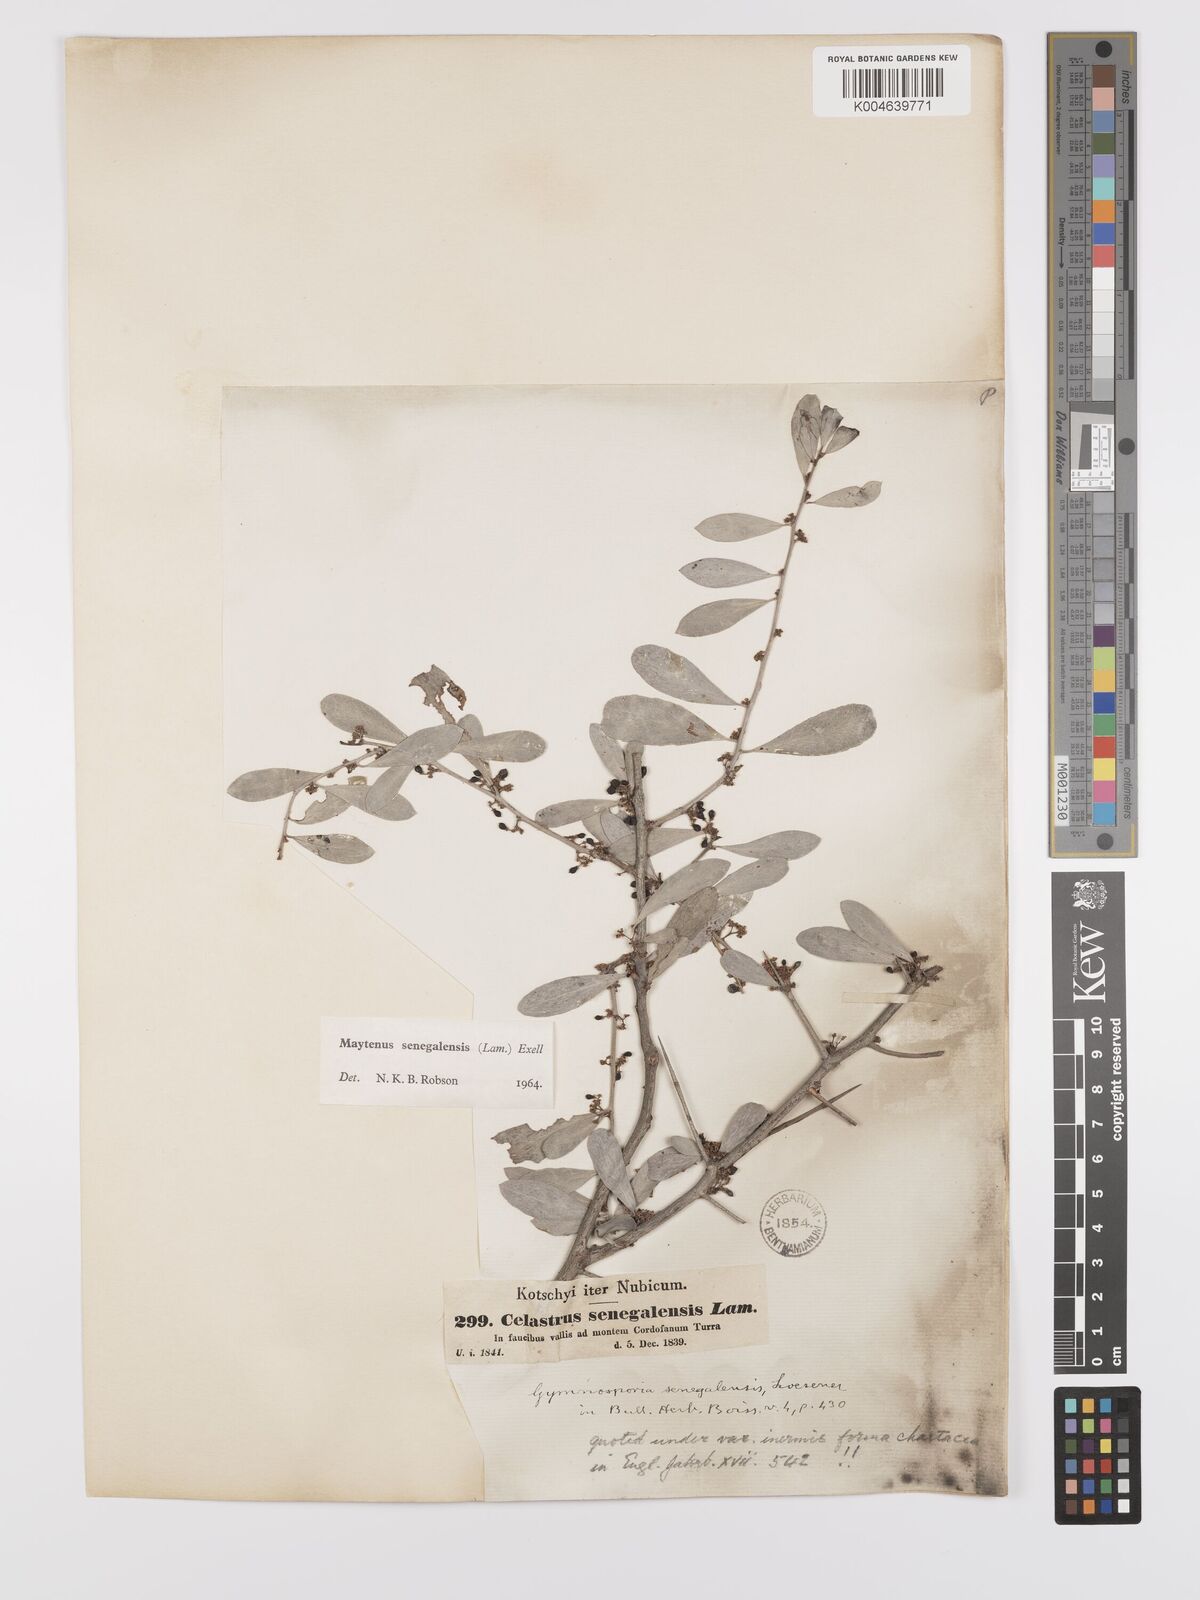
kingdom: Plantae
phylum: Tracheophyta
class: Magnoliopsida
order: Celastrales
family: Celastraceae
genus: Gymnosporia
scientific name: Gymnosporia senegalensis
